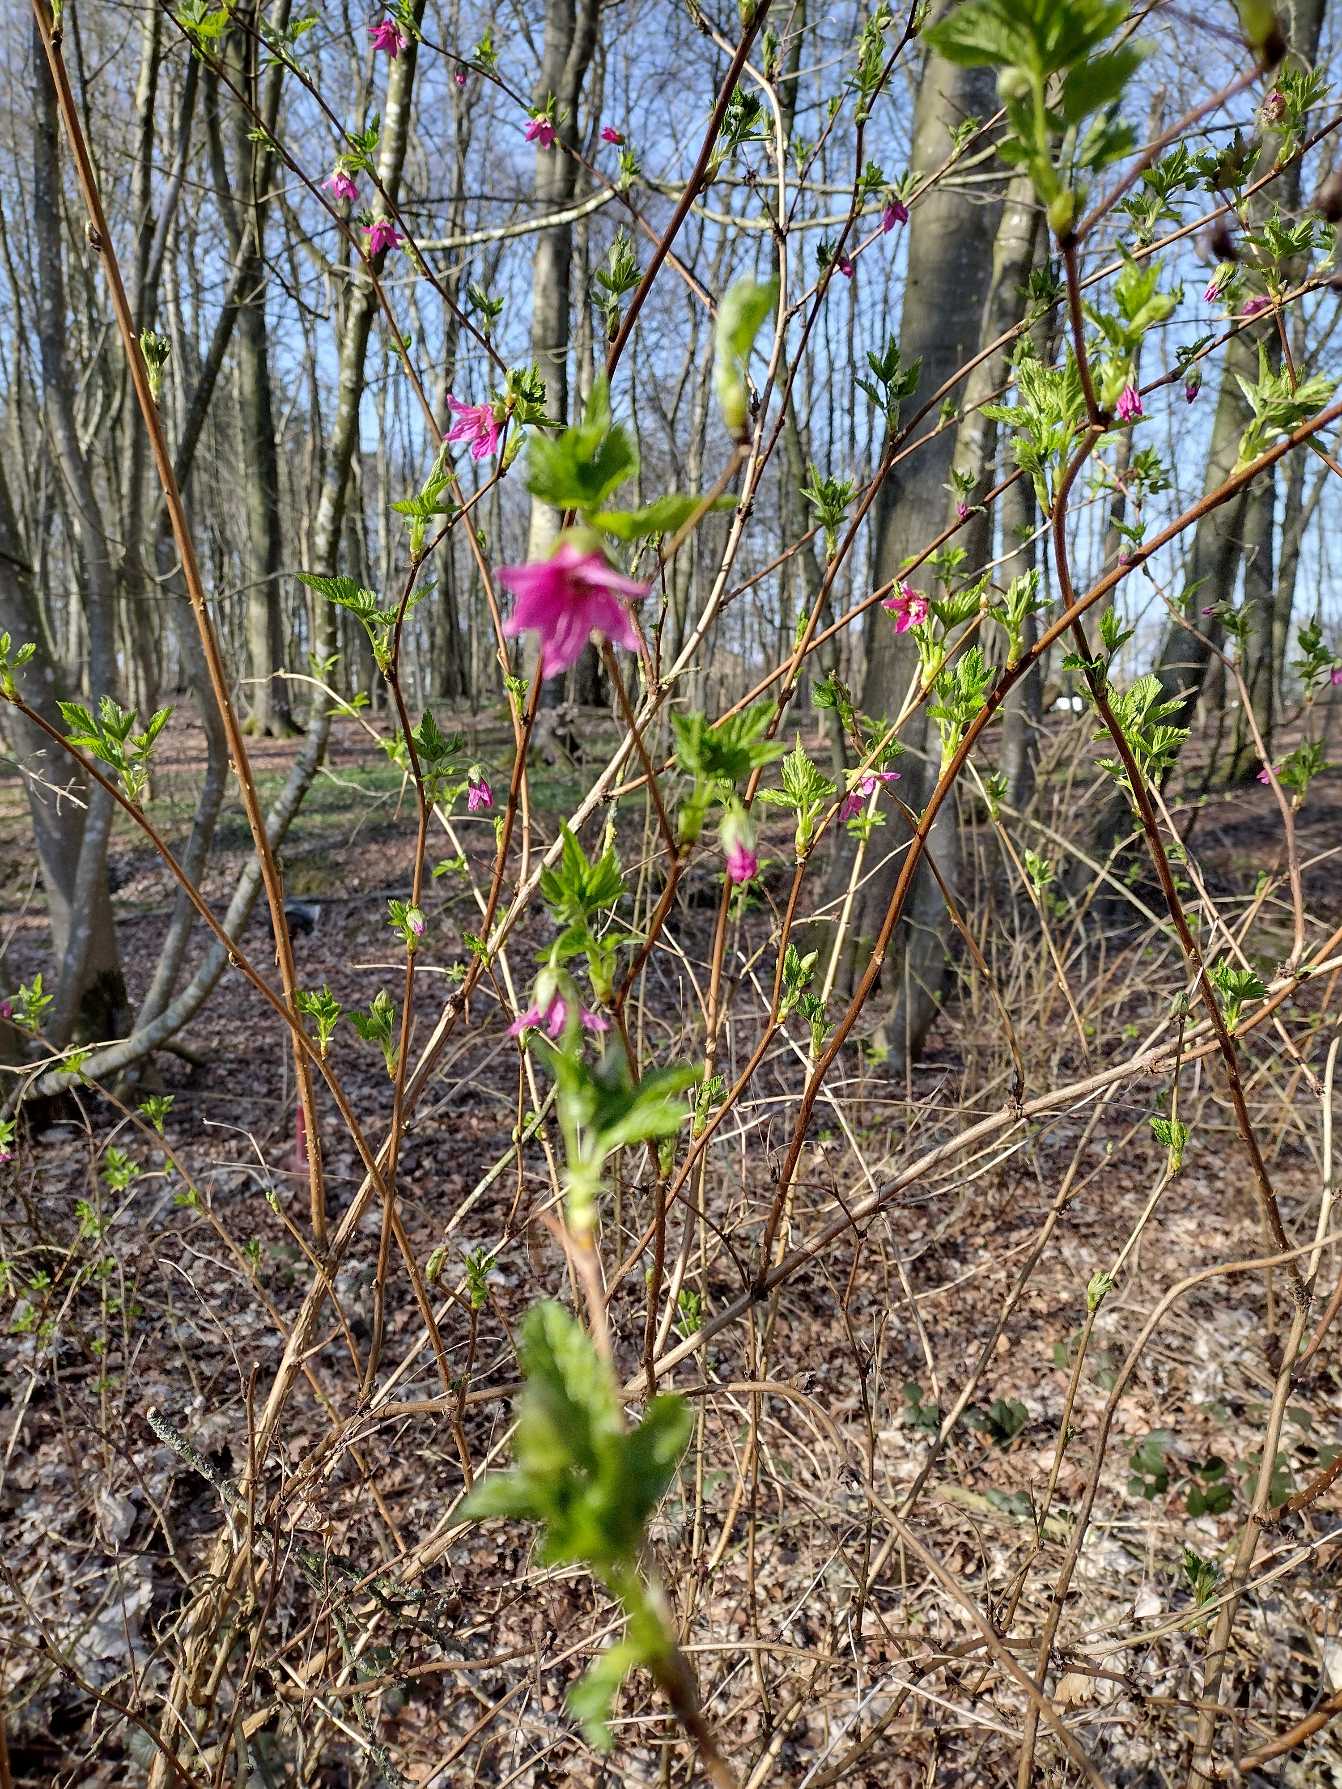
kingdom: Plantae
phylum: Tracheophyta
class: Magnoliopsida
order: Rosales
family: Rosaceae
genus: Rubus
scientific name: Rubus spectabilis
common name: Laksebær
